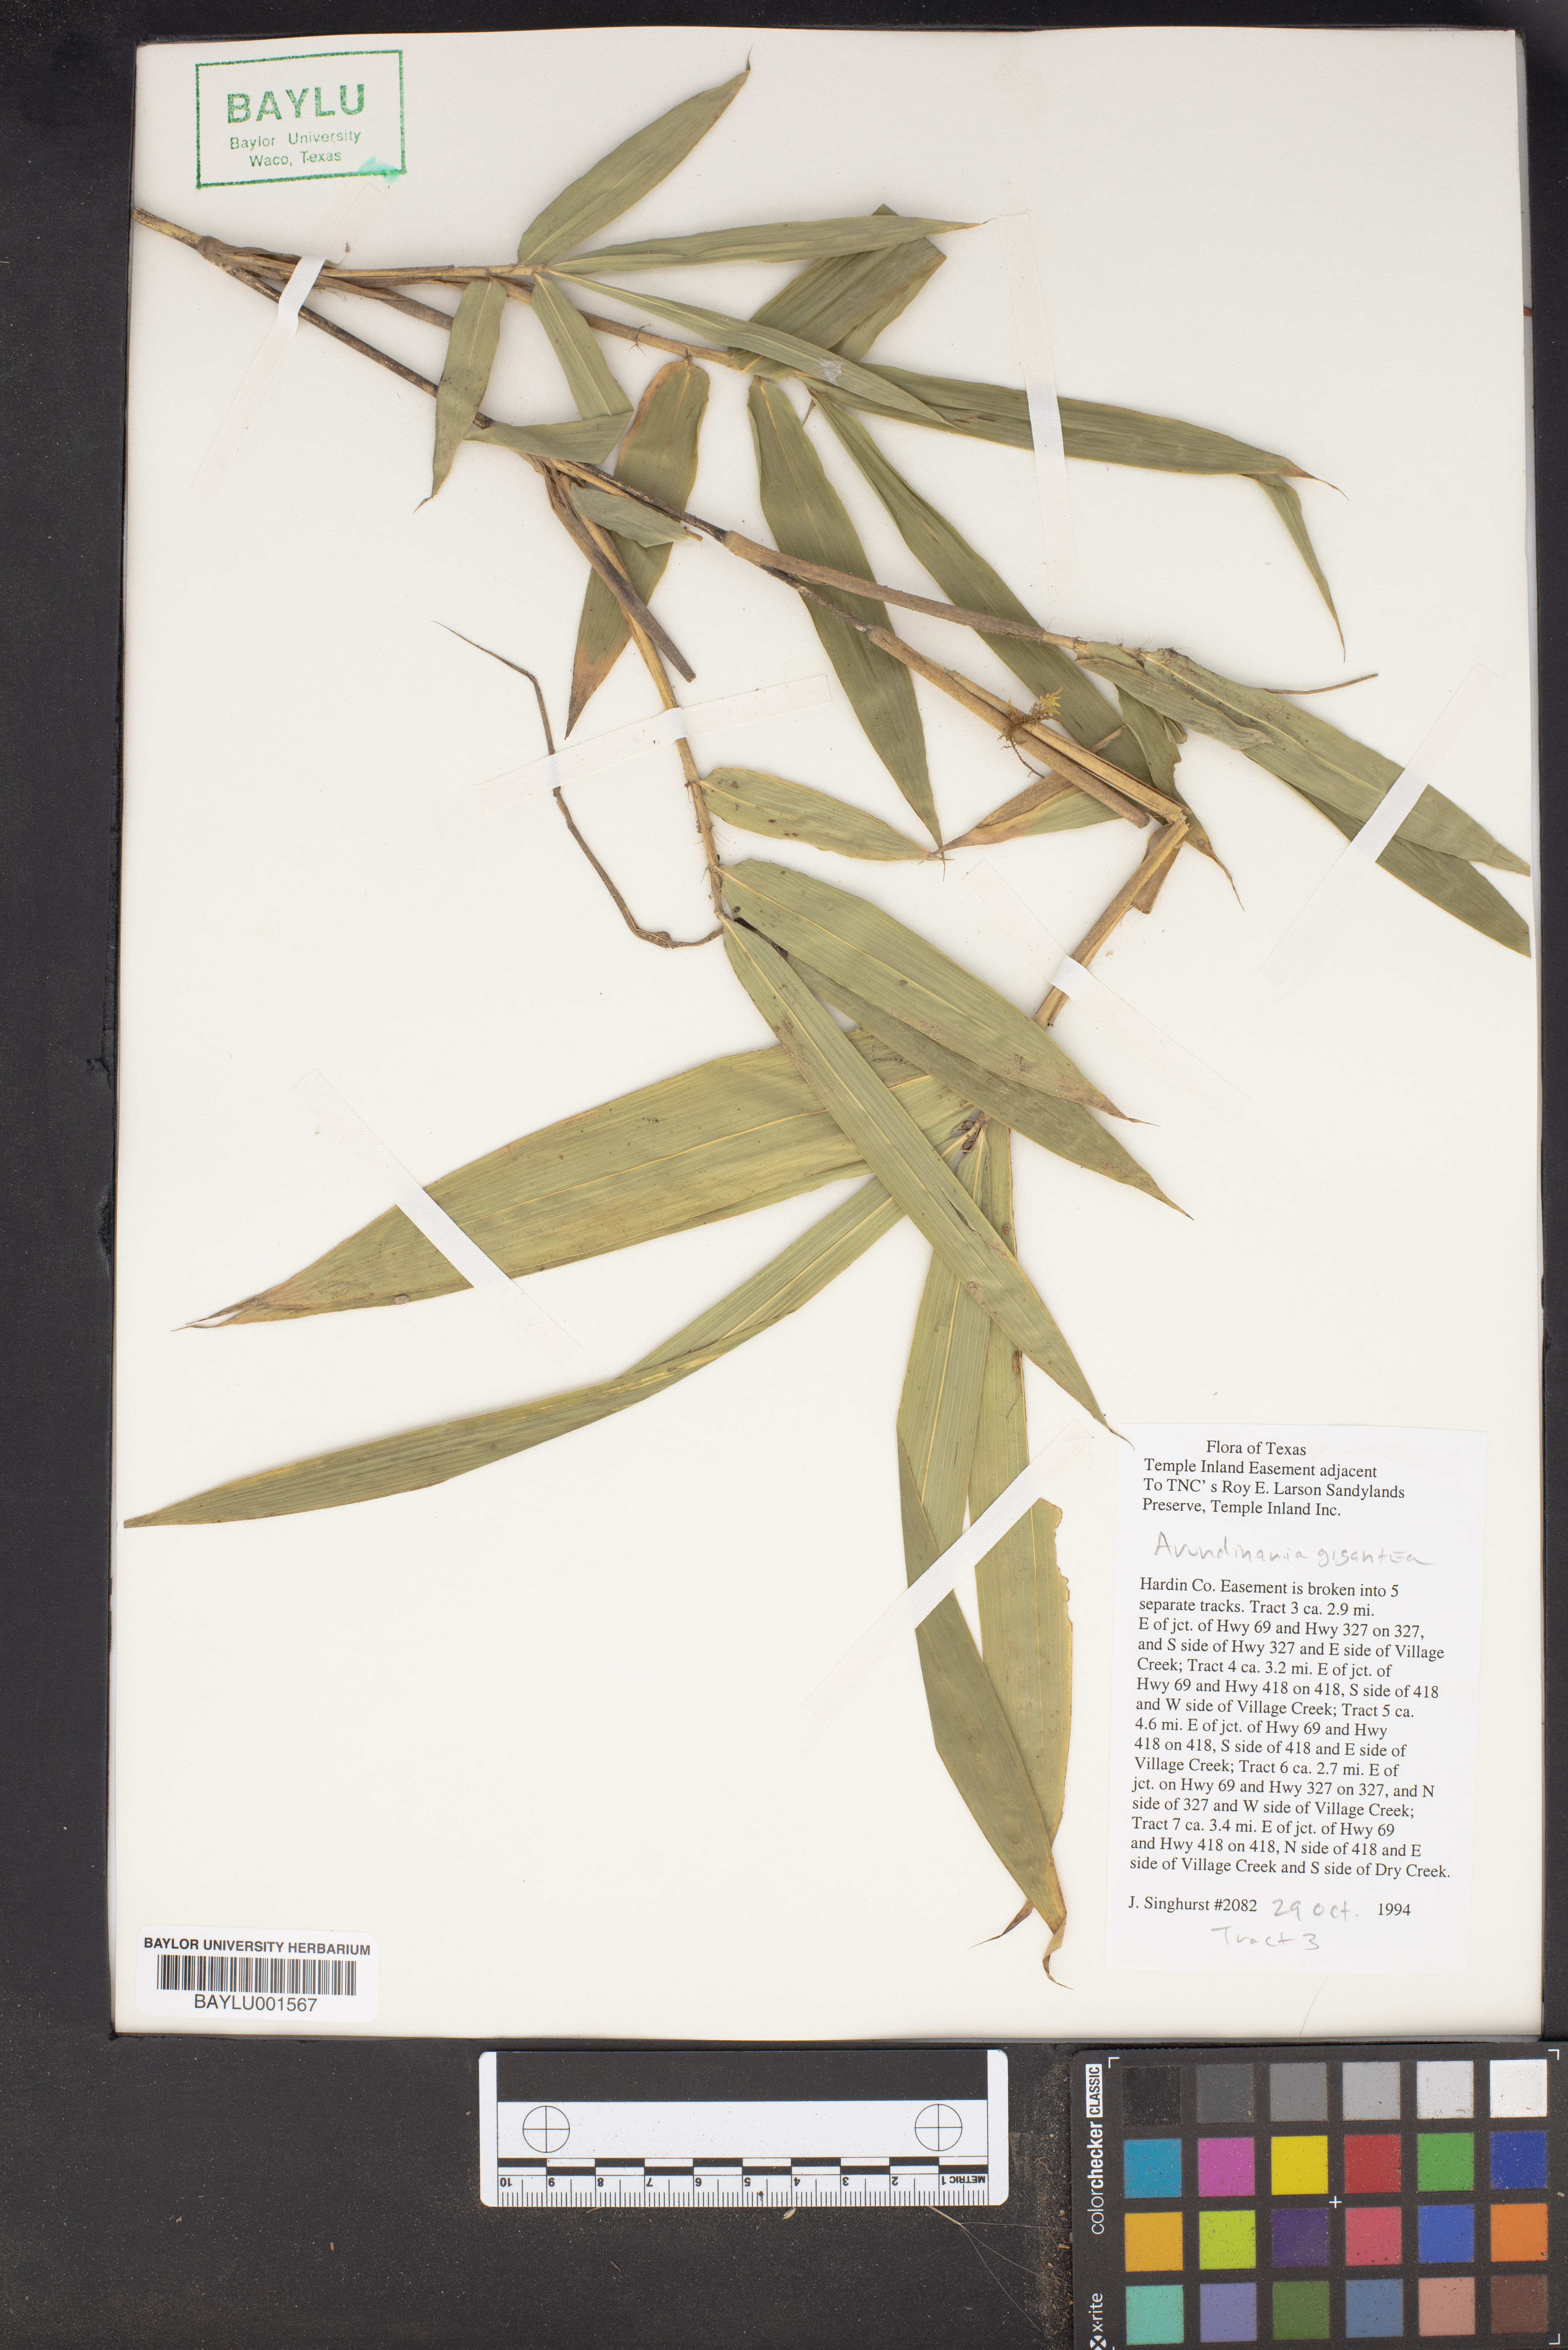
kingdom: Plantae
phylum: Tracheophyta
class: Liliopsida
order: Poales
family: Poaceae
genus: Arundinaria
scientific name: Arundinaria gigantea
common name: Giant cane
